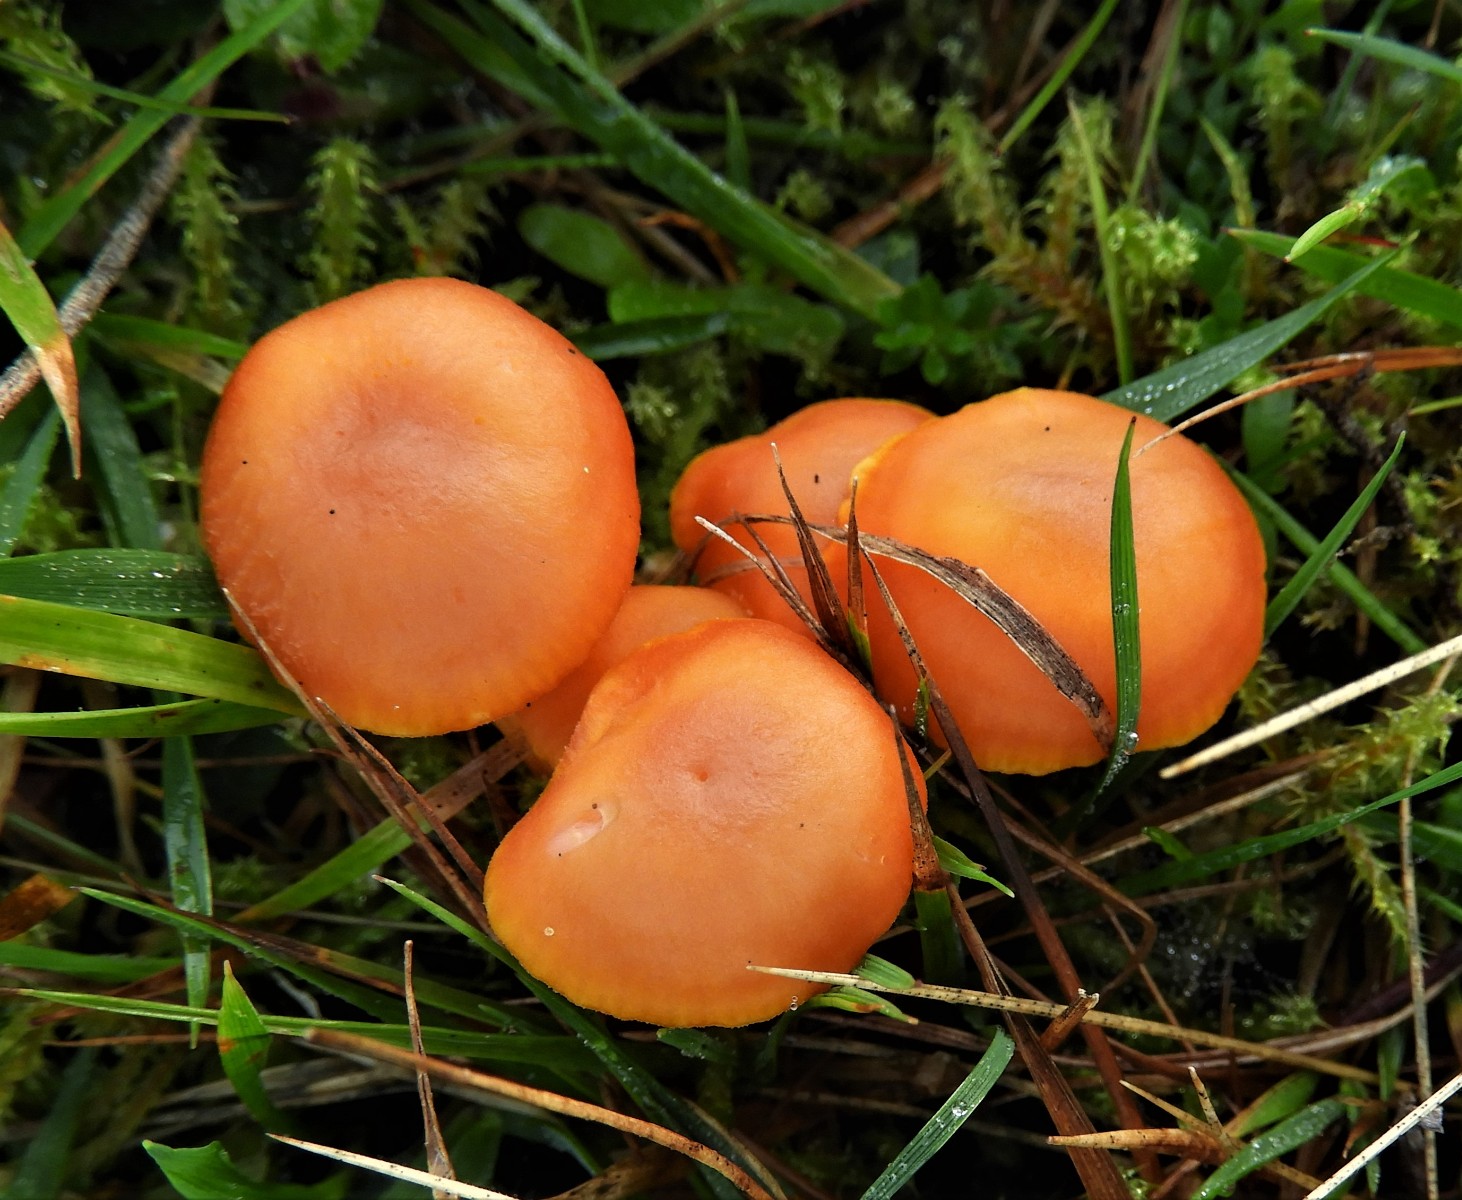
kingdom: Fungi
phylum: Basidiomycota
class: Agaricomycetes
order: Agaricales
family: Hygrophoraceae
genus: Hygrocybe
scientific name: Hygrocybe reidii
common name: honning-vokshat
